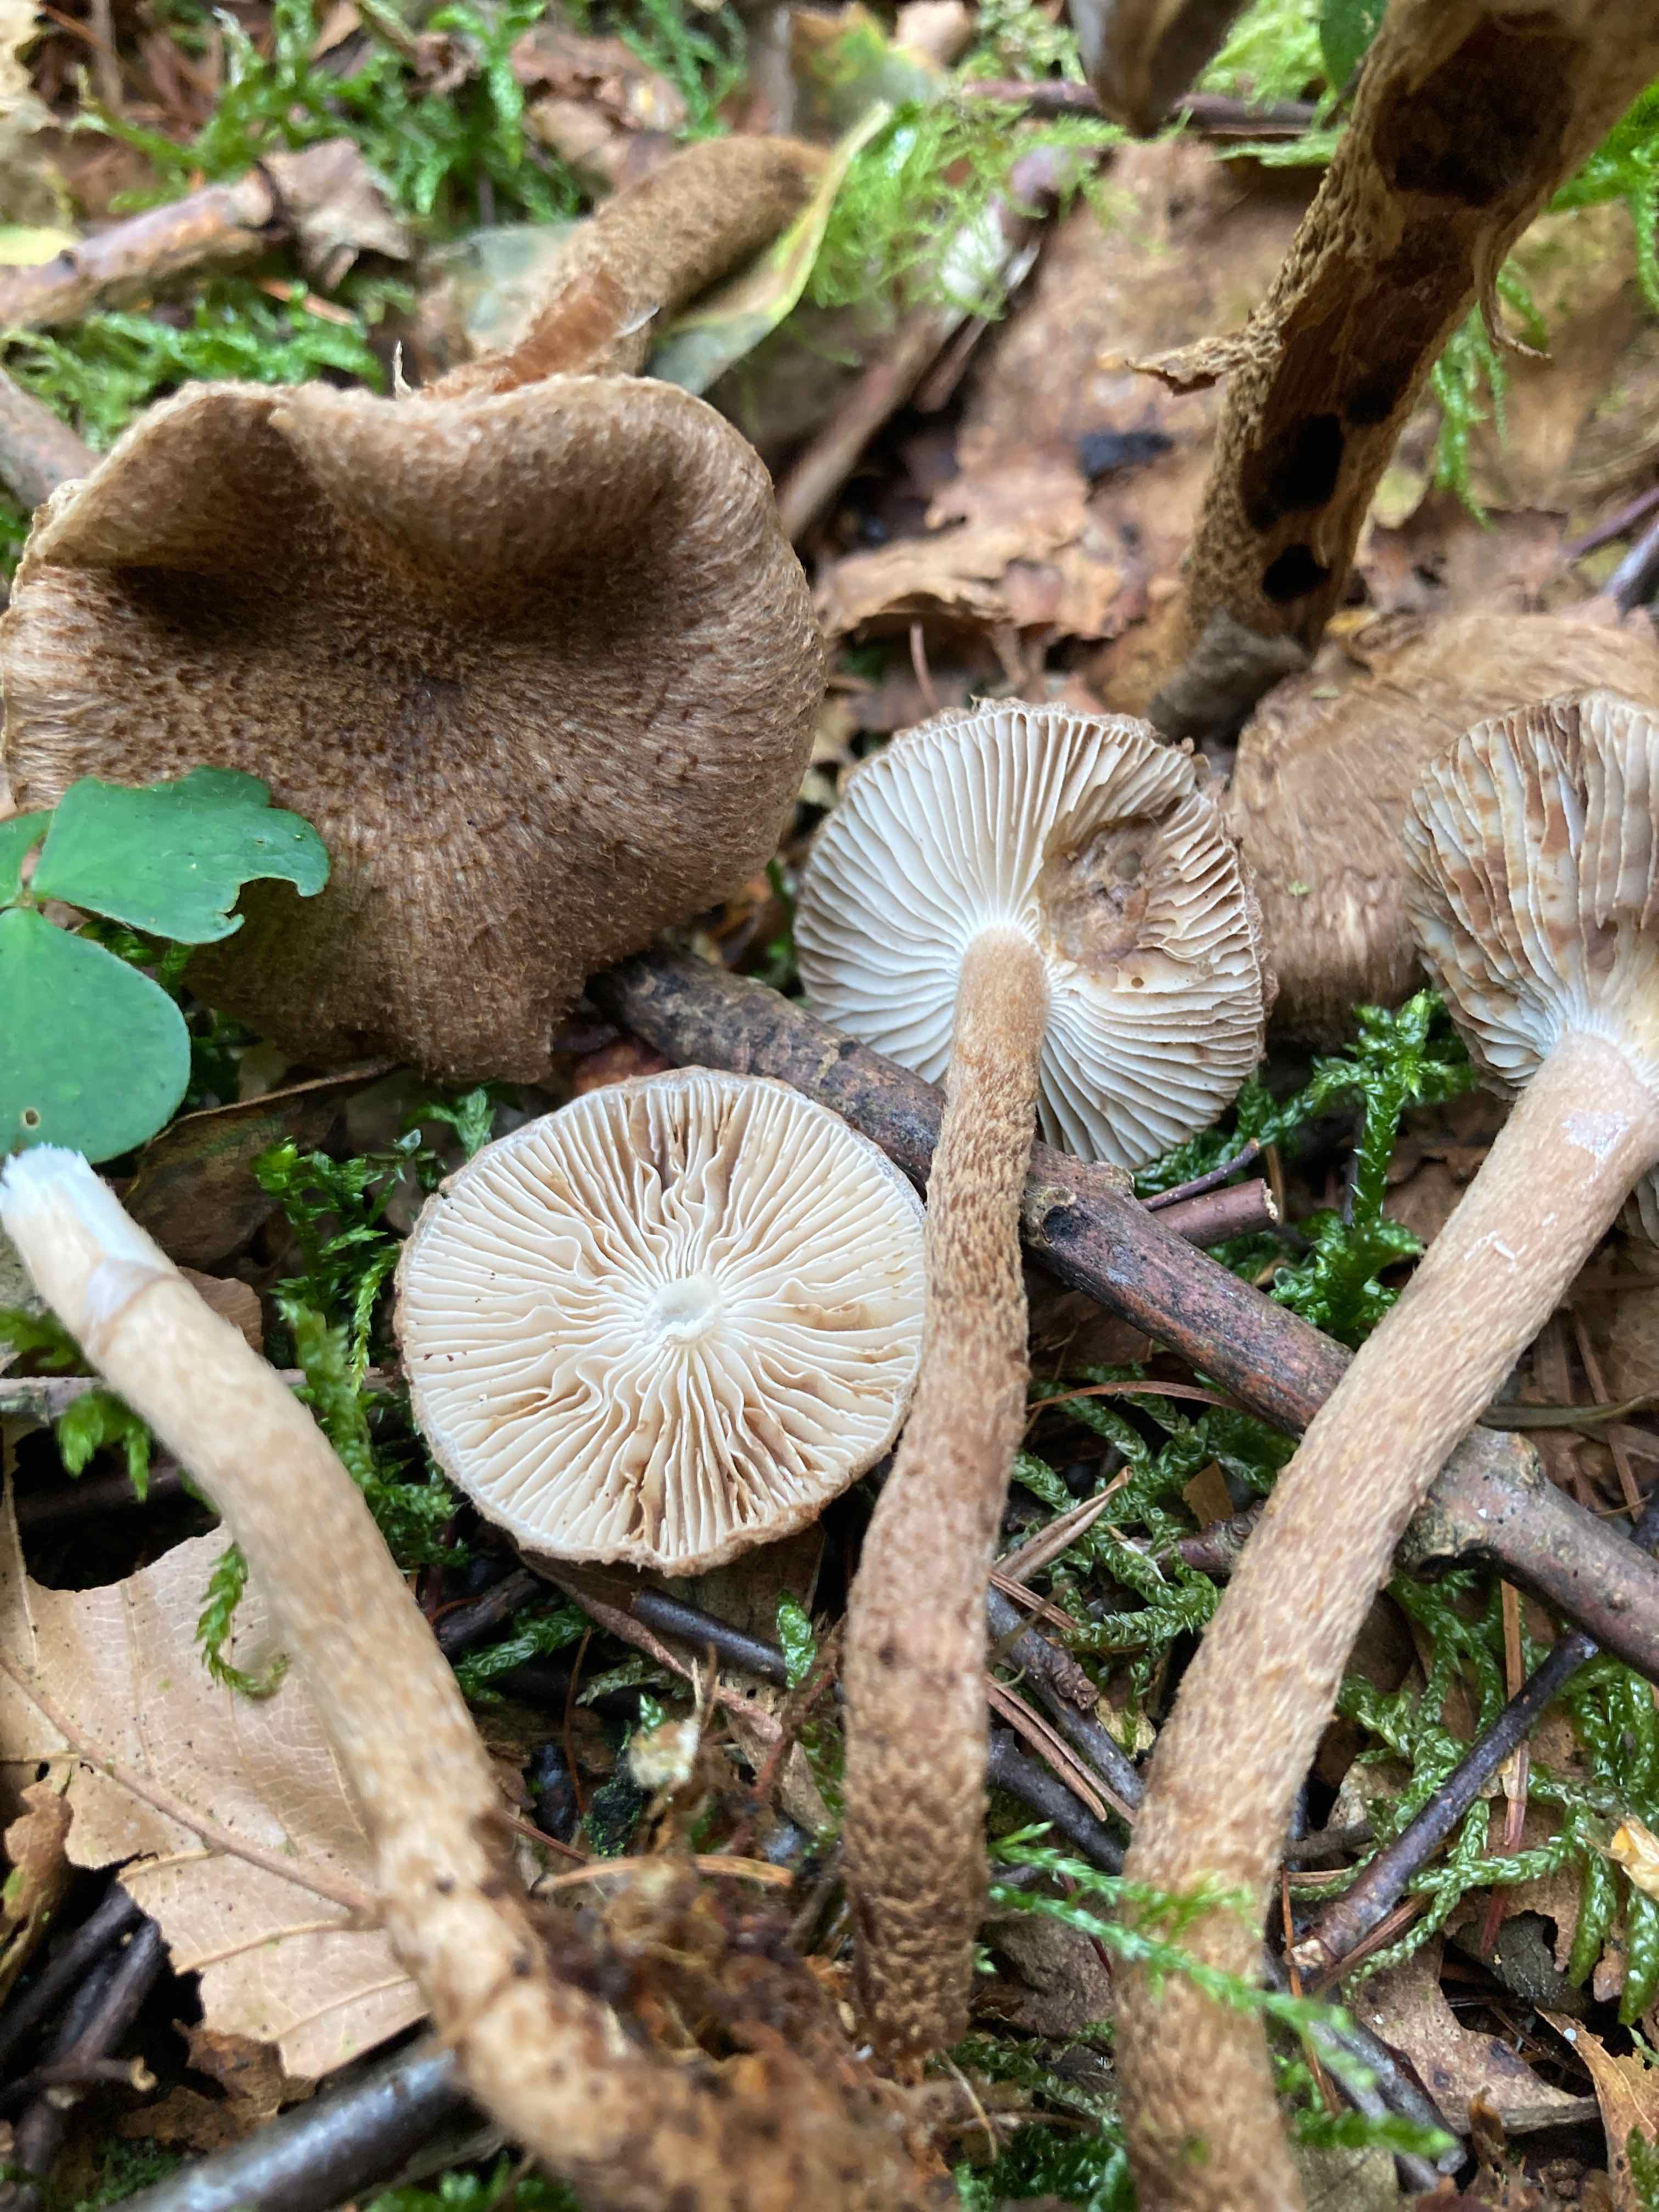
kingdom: Fungi
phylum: Basidiomycota
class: Agaricomycetes
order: Agaricales
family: Inocybaceae
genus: Inocybe
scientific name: Inocybe stellatospora
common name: spidsskællet trævlhat
